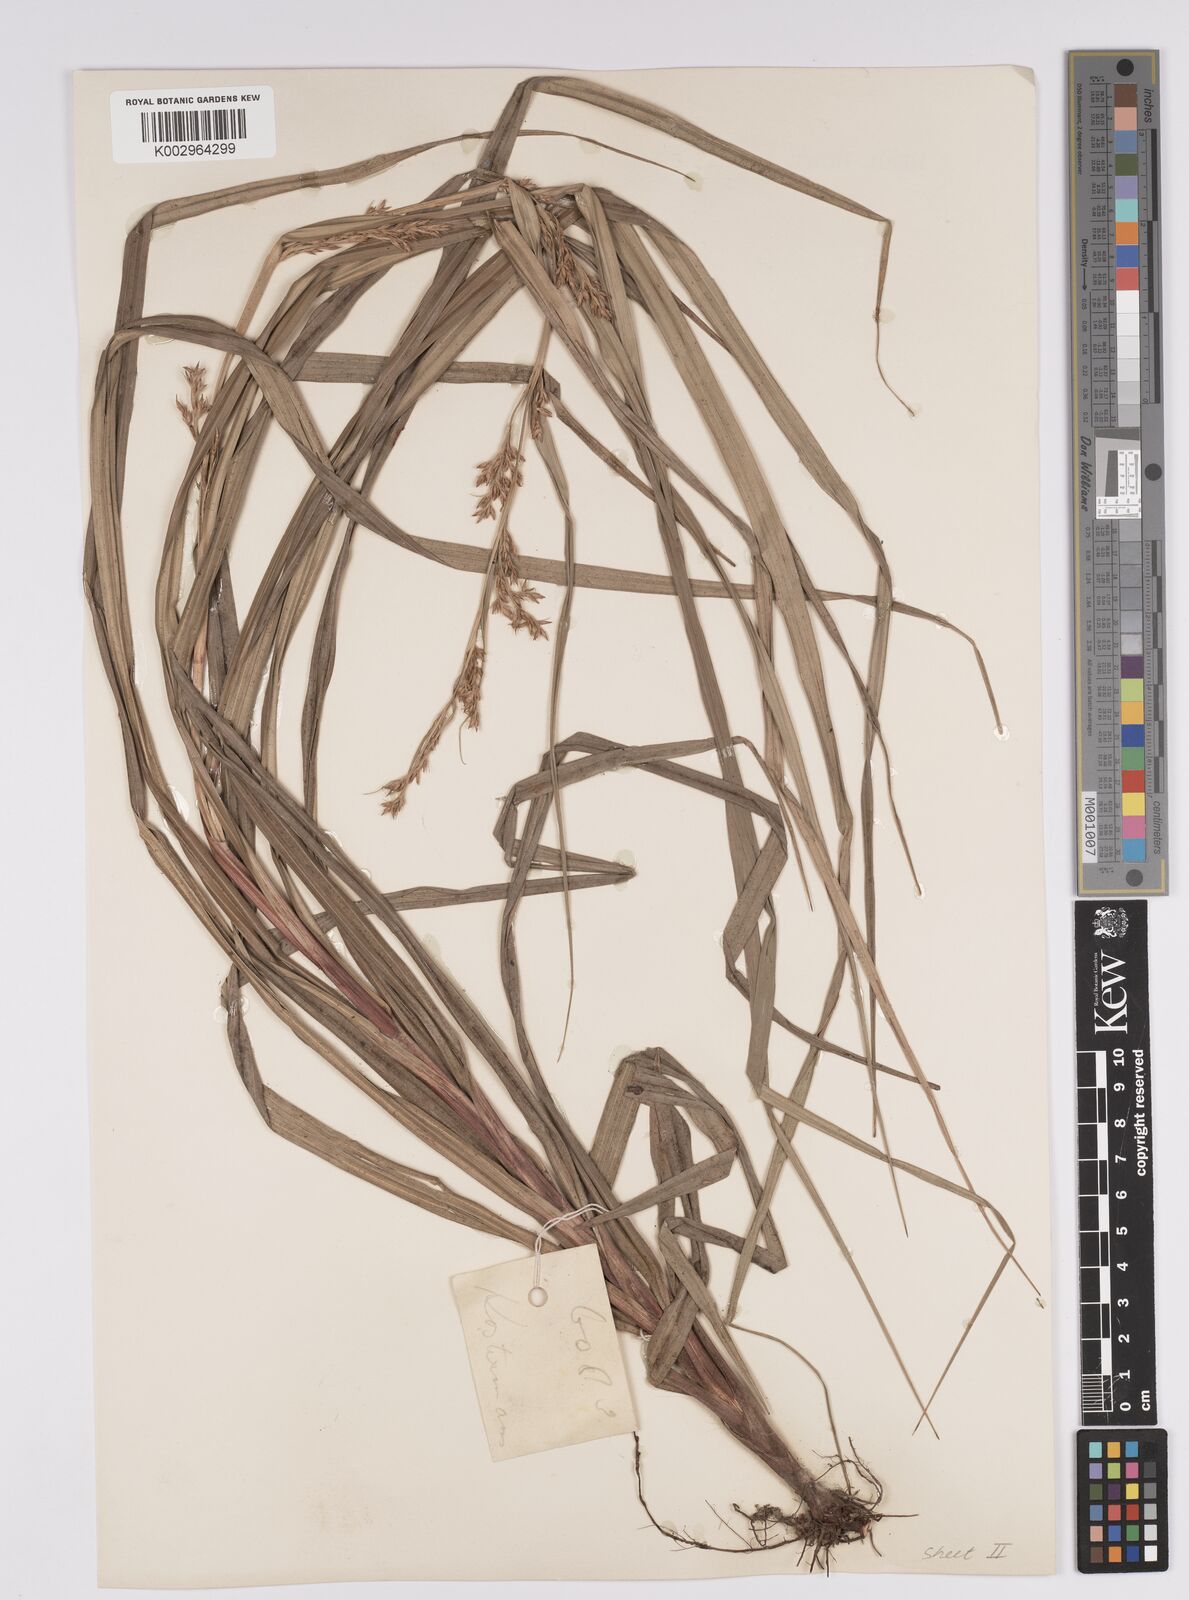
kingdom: Plantae
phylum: Tracheophyta
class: Liliopsida
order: Poales
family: Cyperaceae
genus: Scleria
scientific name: Scleria motleyi
